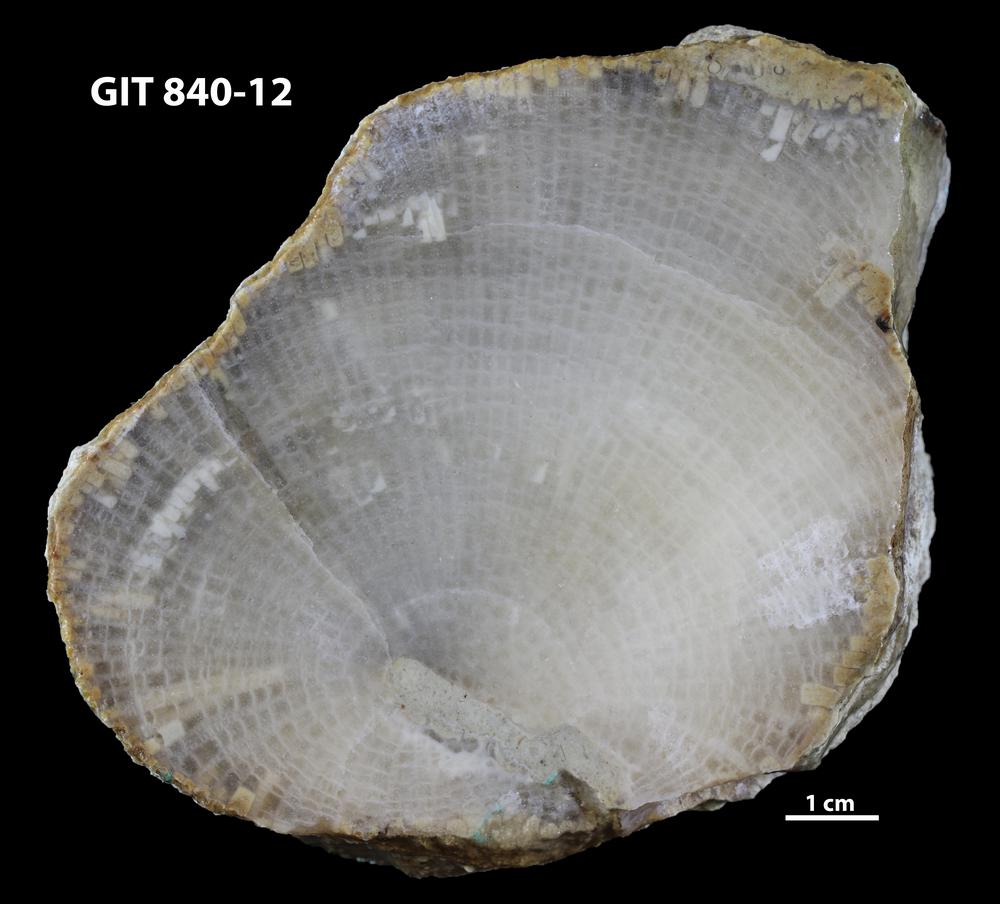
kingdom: Animalia
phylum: Cnidaria
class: Anthozoa
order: Heliolitina
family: Proheliolitidae
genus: Protoheliolites
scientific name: Protoheliolites
